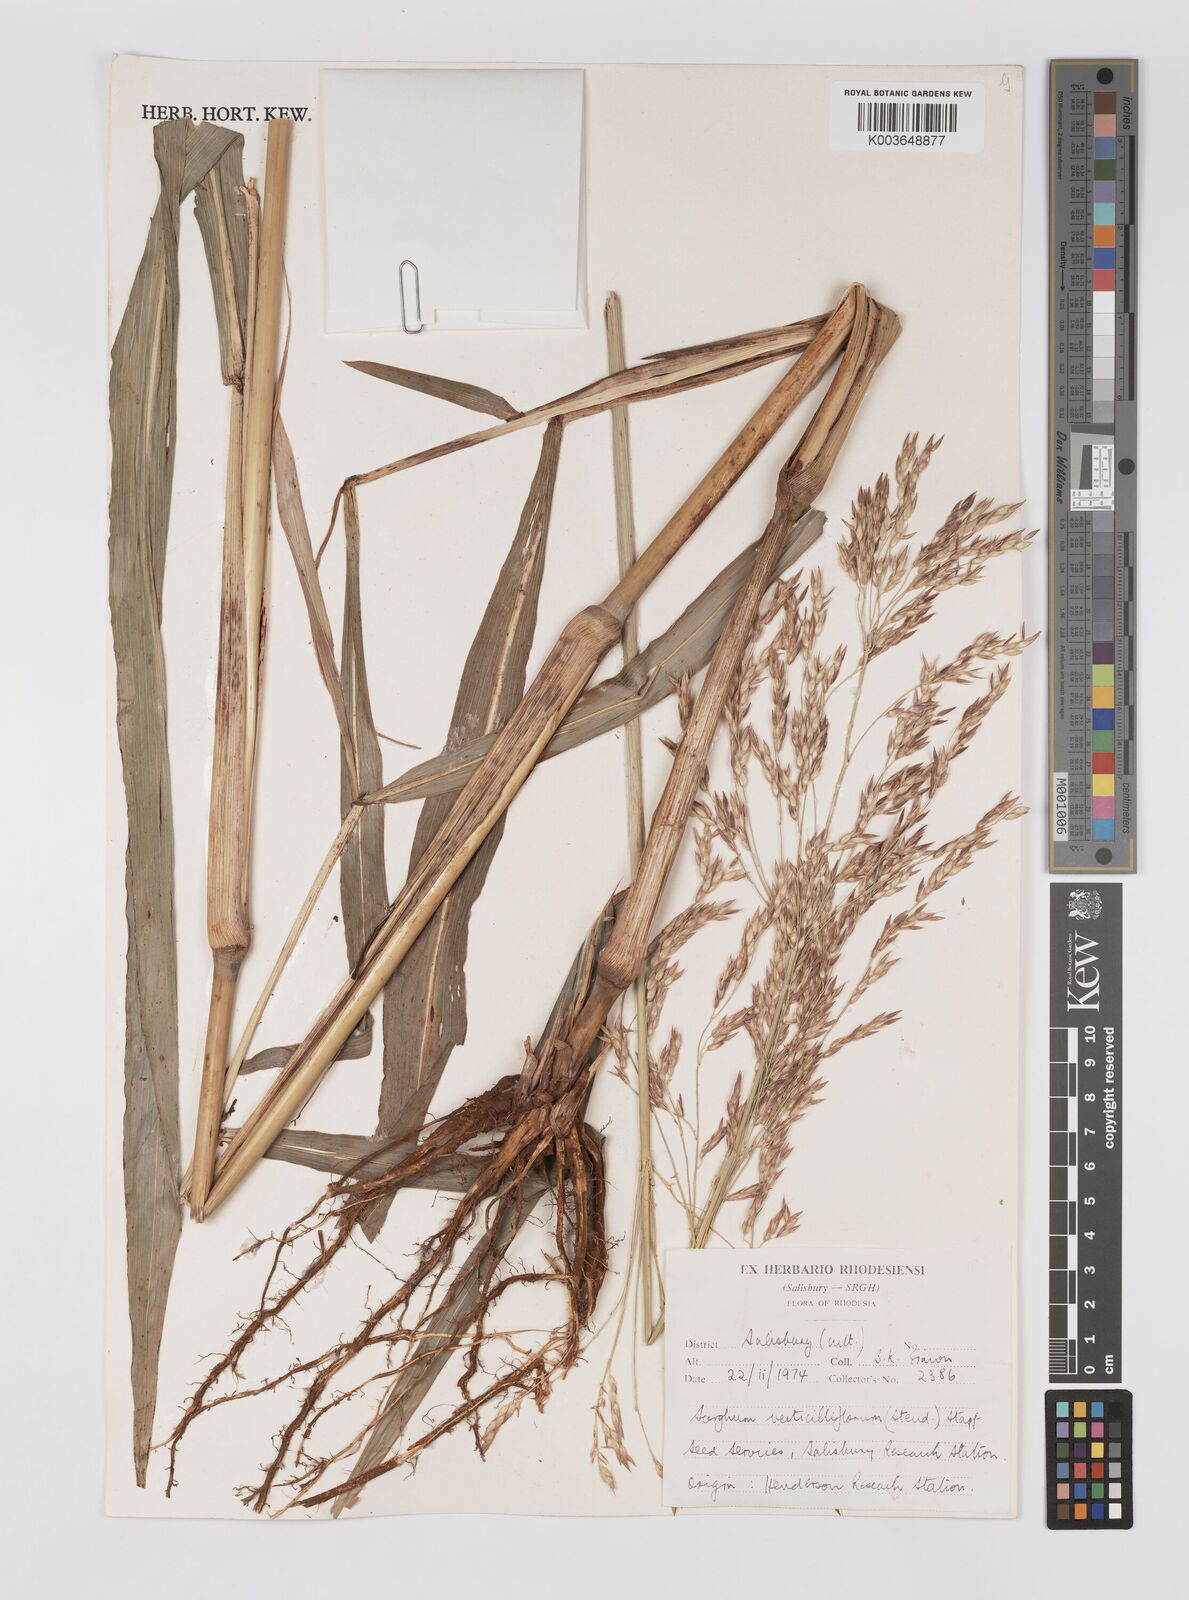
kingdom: Plantae
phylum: Tracheophyta
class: Liliopsida
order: Poales
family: Poaceae
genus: Sorghum
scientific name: Sorghum arundinaceum
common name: Sorghum
